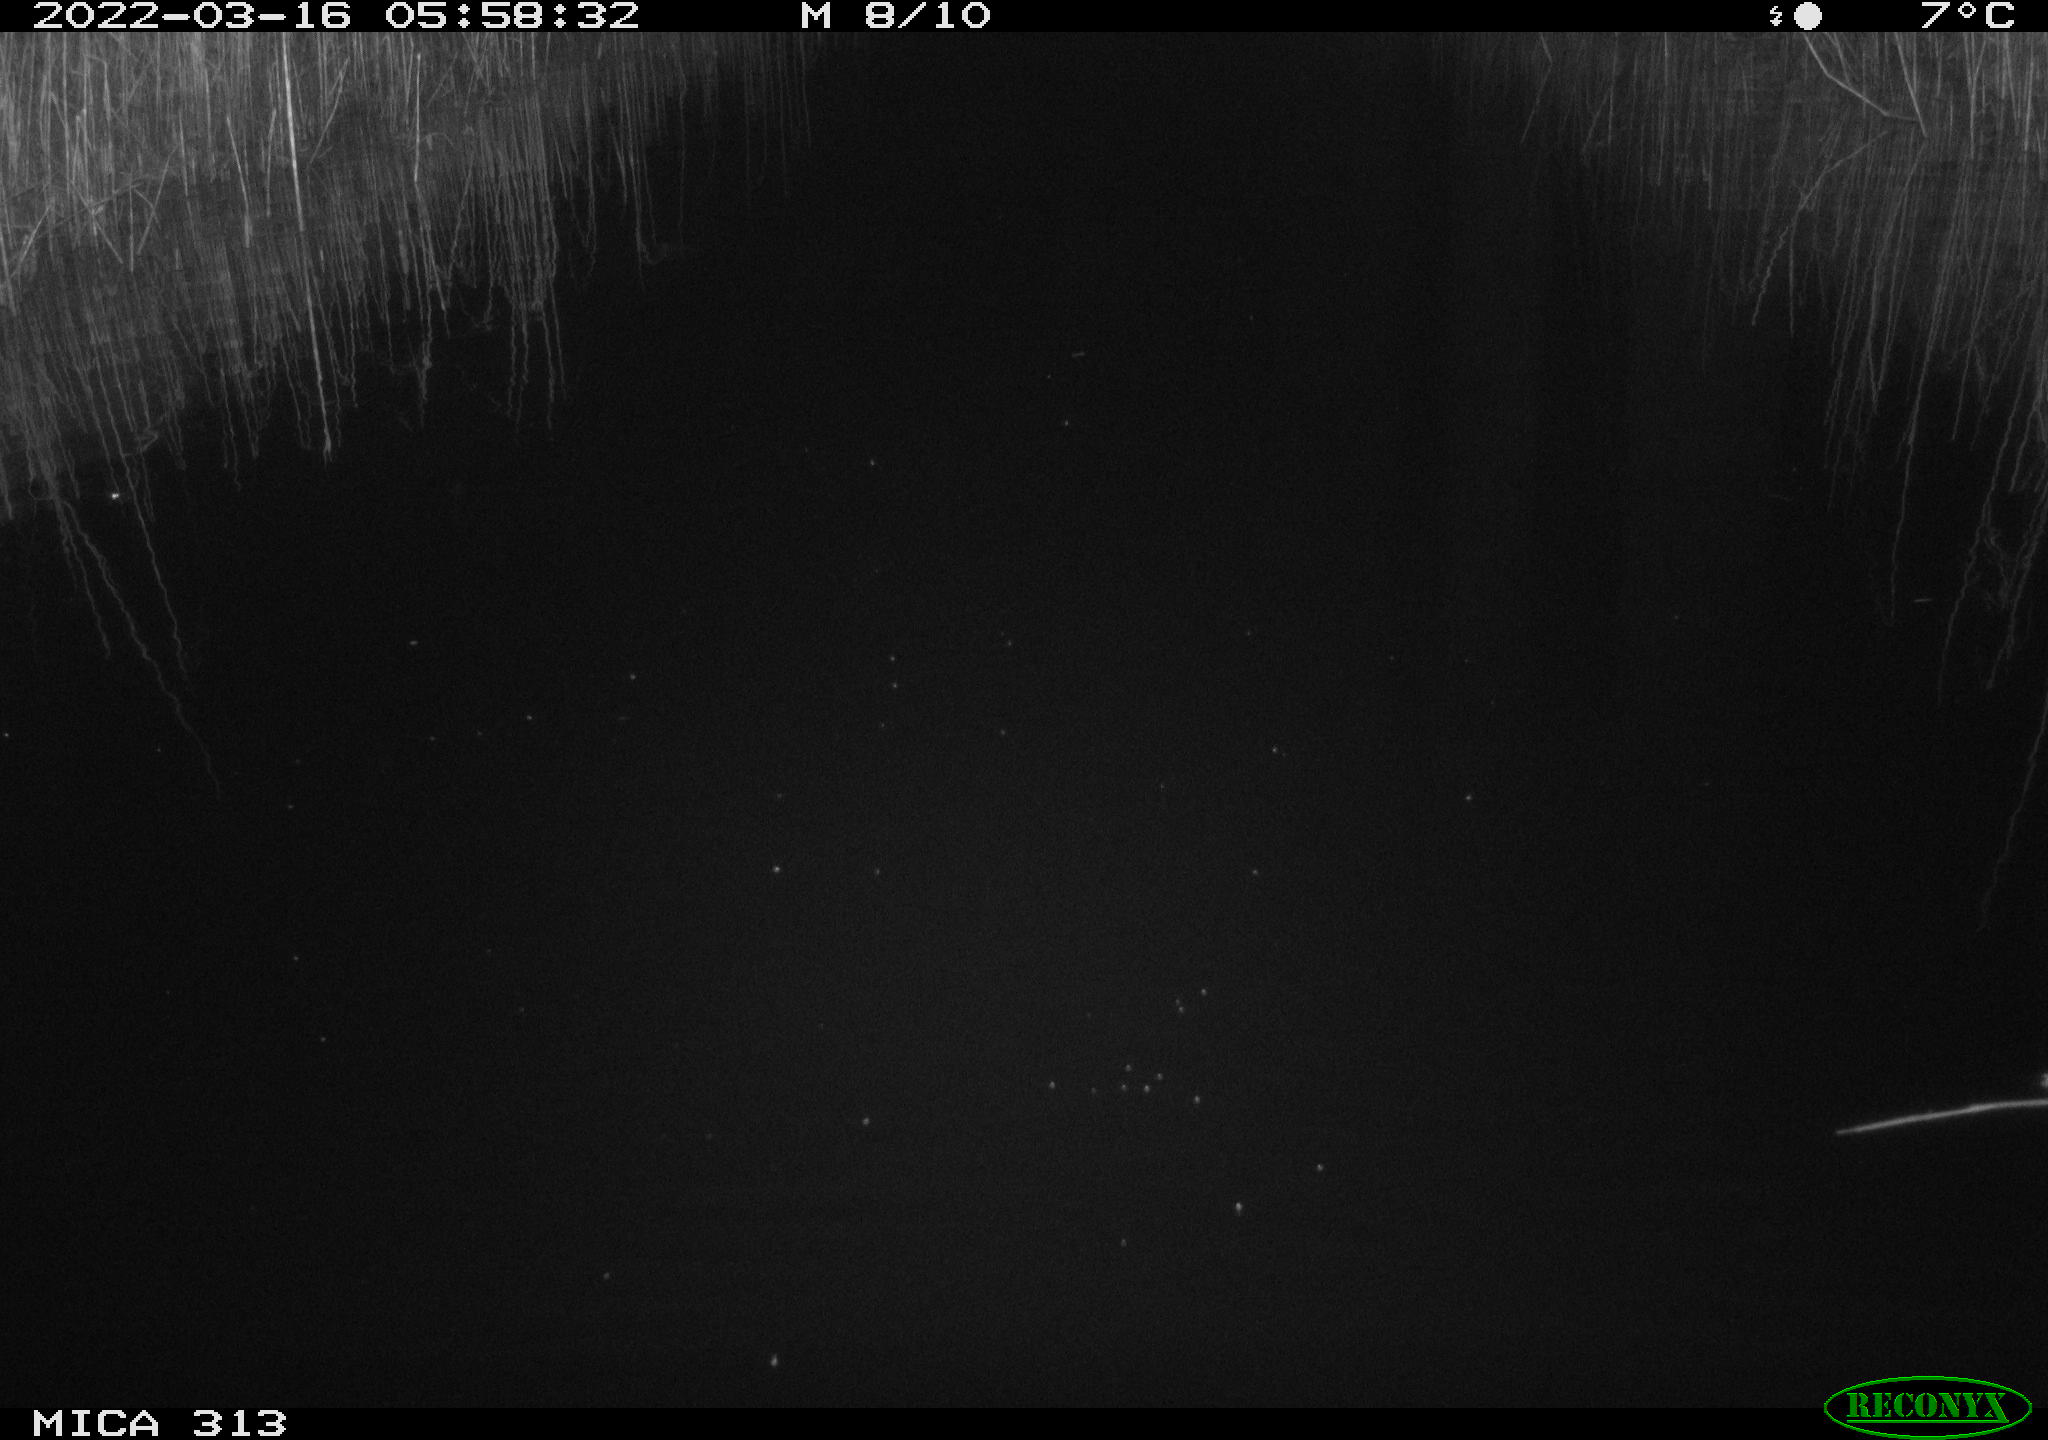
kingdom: Animalia
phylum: Chordata
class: Aves
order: Gruiformes
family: Rallidae
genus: Gallinula
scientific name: Gallinula chloropus
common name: Common moorhen
